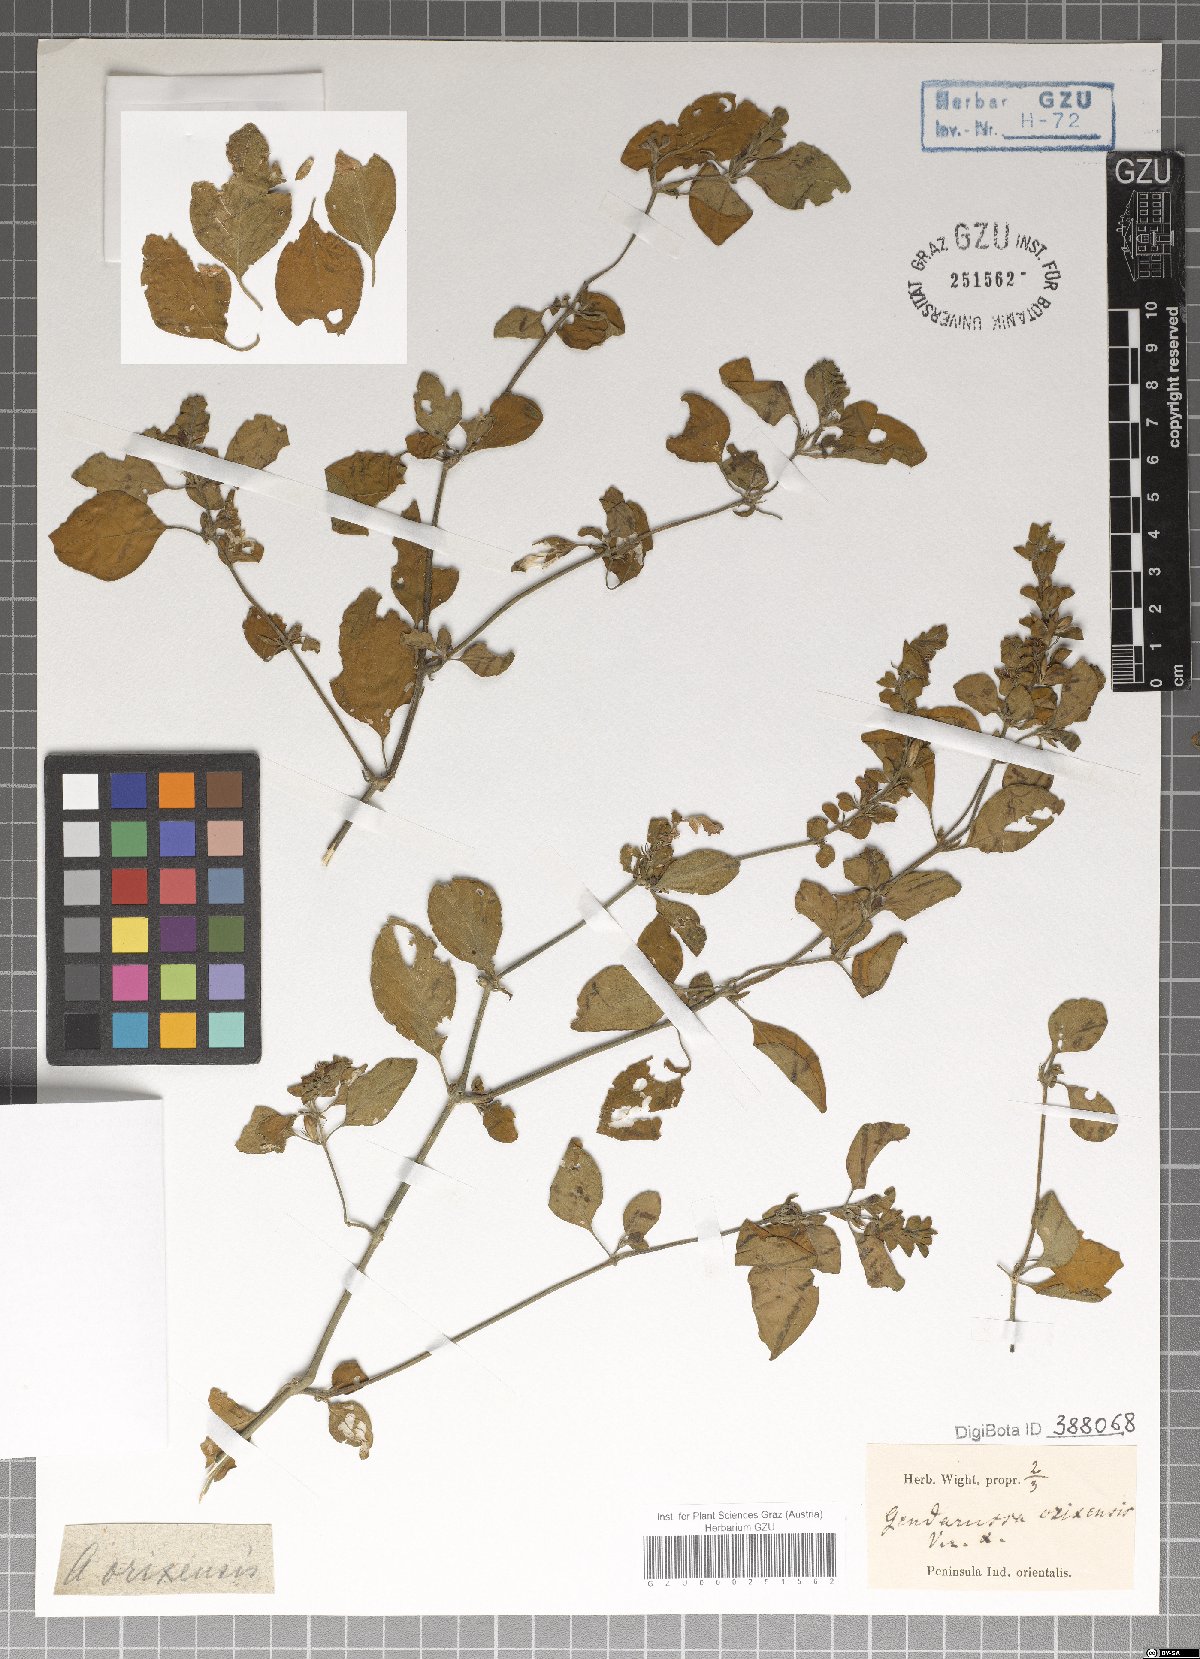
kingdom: Plantae
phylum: Tracheophyta
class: Magnoliopsida
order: Lamiales
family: Acanthaceae
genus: Justicia
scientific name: Justicia glauca
